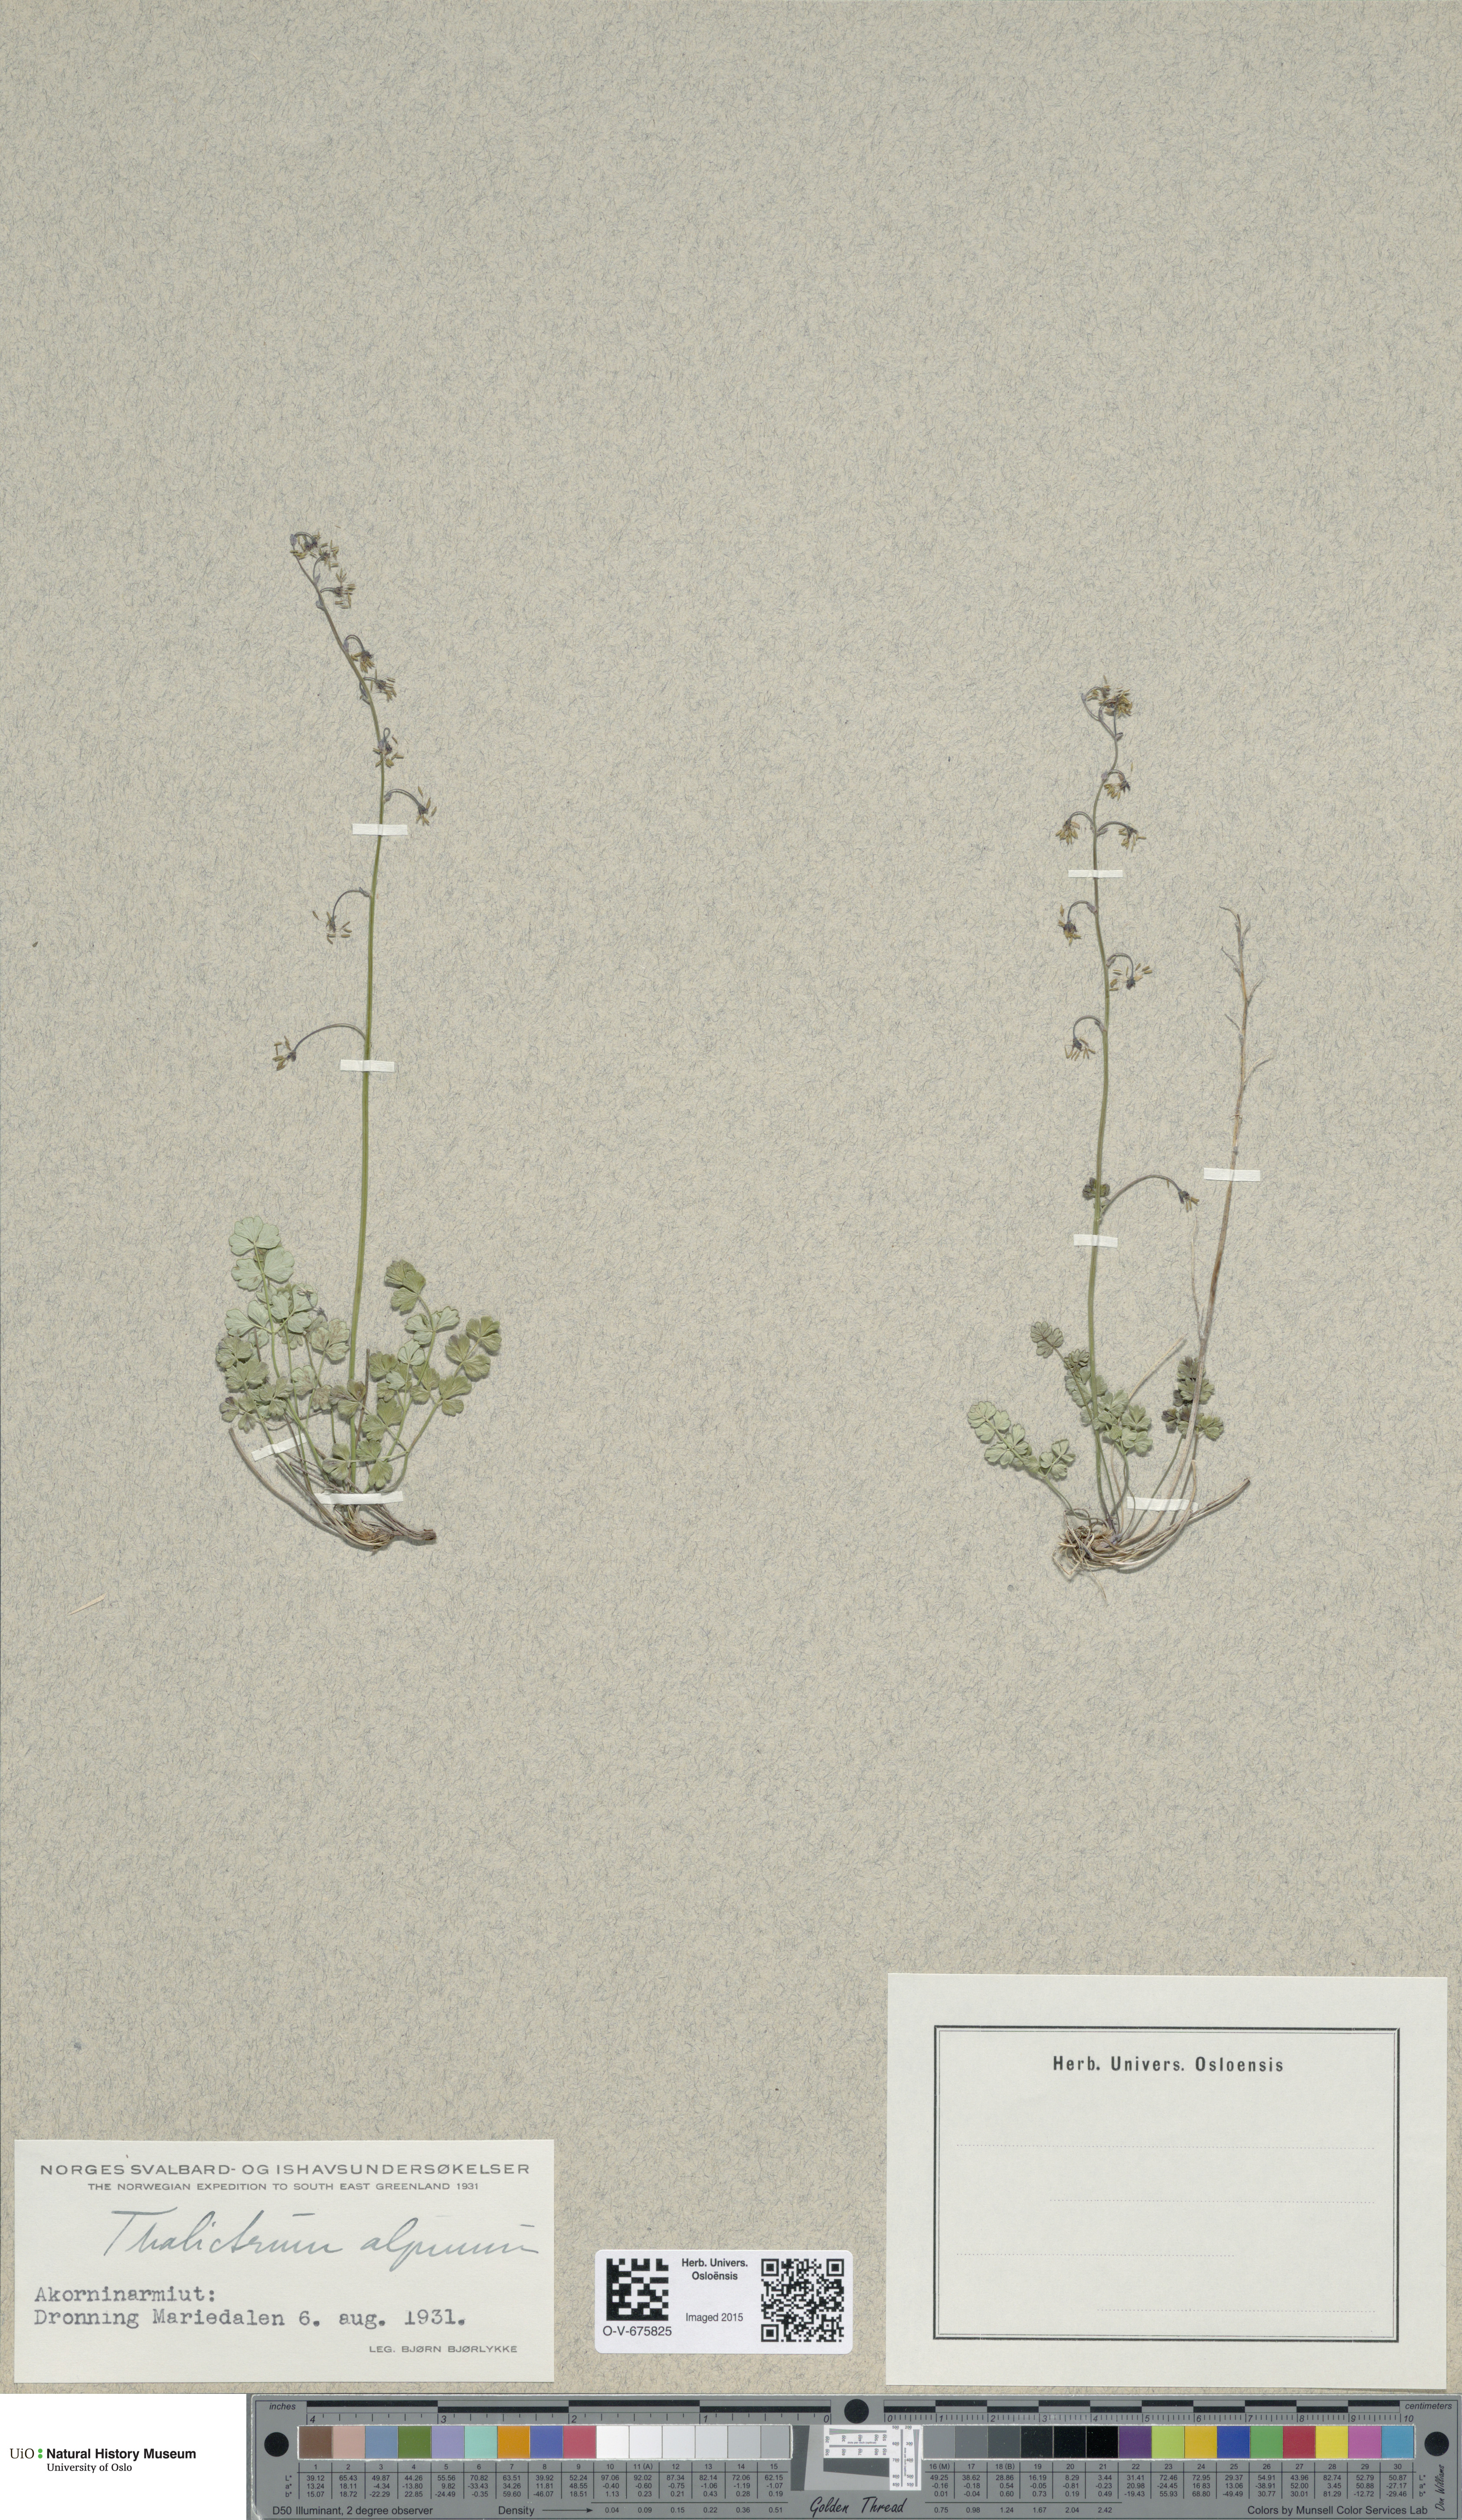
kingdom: Plantae
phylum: Tracheophyta
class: Magnoliopsida
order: Ranunculales
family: Ranunculaceae
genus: Thalictrum
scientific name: Thalictrum alpinum
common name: Alpine meadow-rue
